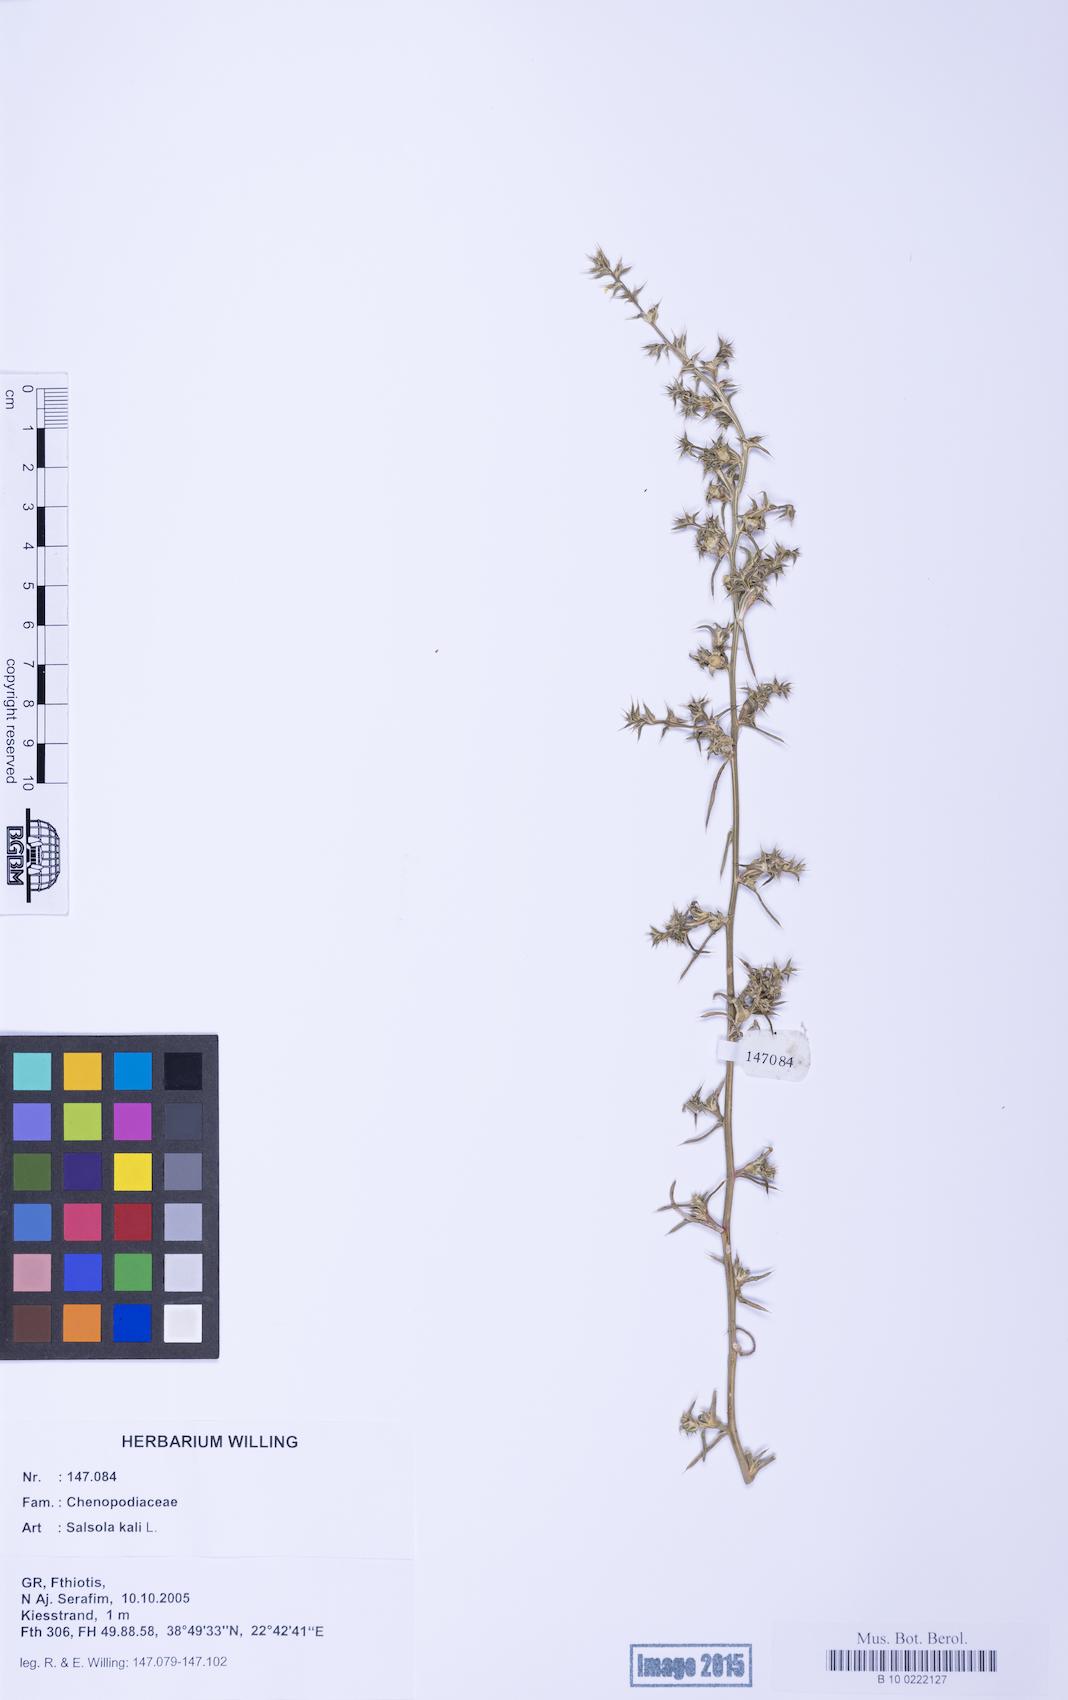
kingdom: Plantae
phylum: Tracheophyta
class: Magnoliopsida
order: Caryophyllales
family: Amaranthaceae
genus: Salsola
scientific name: Salsola kali
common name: Saltwort
